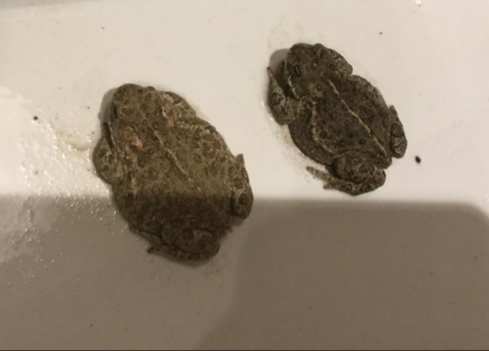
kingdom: Animalia
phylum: Chordata
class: Amphibia
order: Anura
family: Bufonidae
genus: Epidalea
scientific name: Epidalea calamita
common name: Strandtudse
